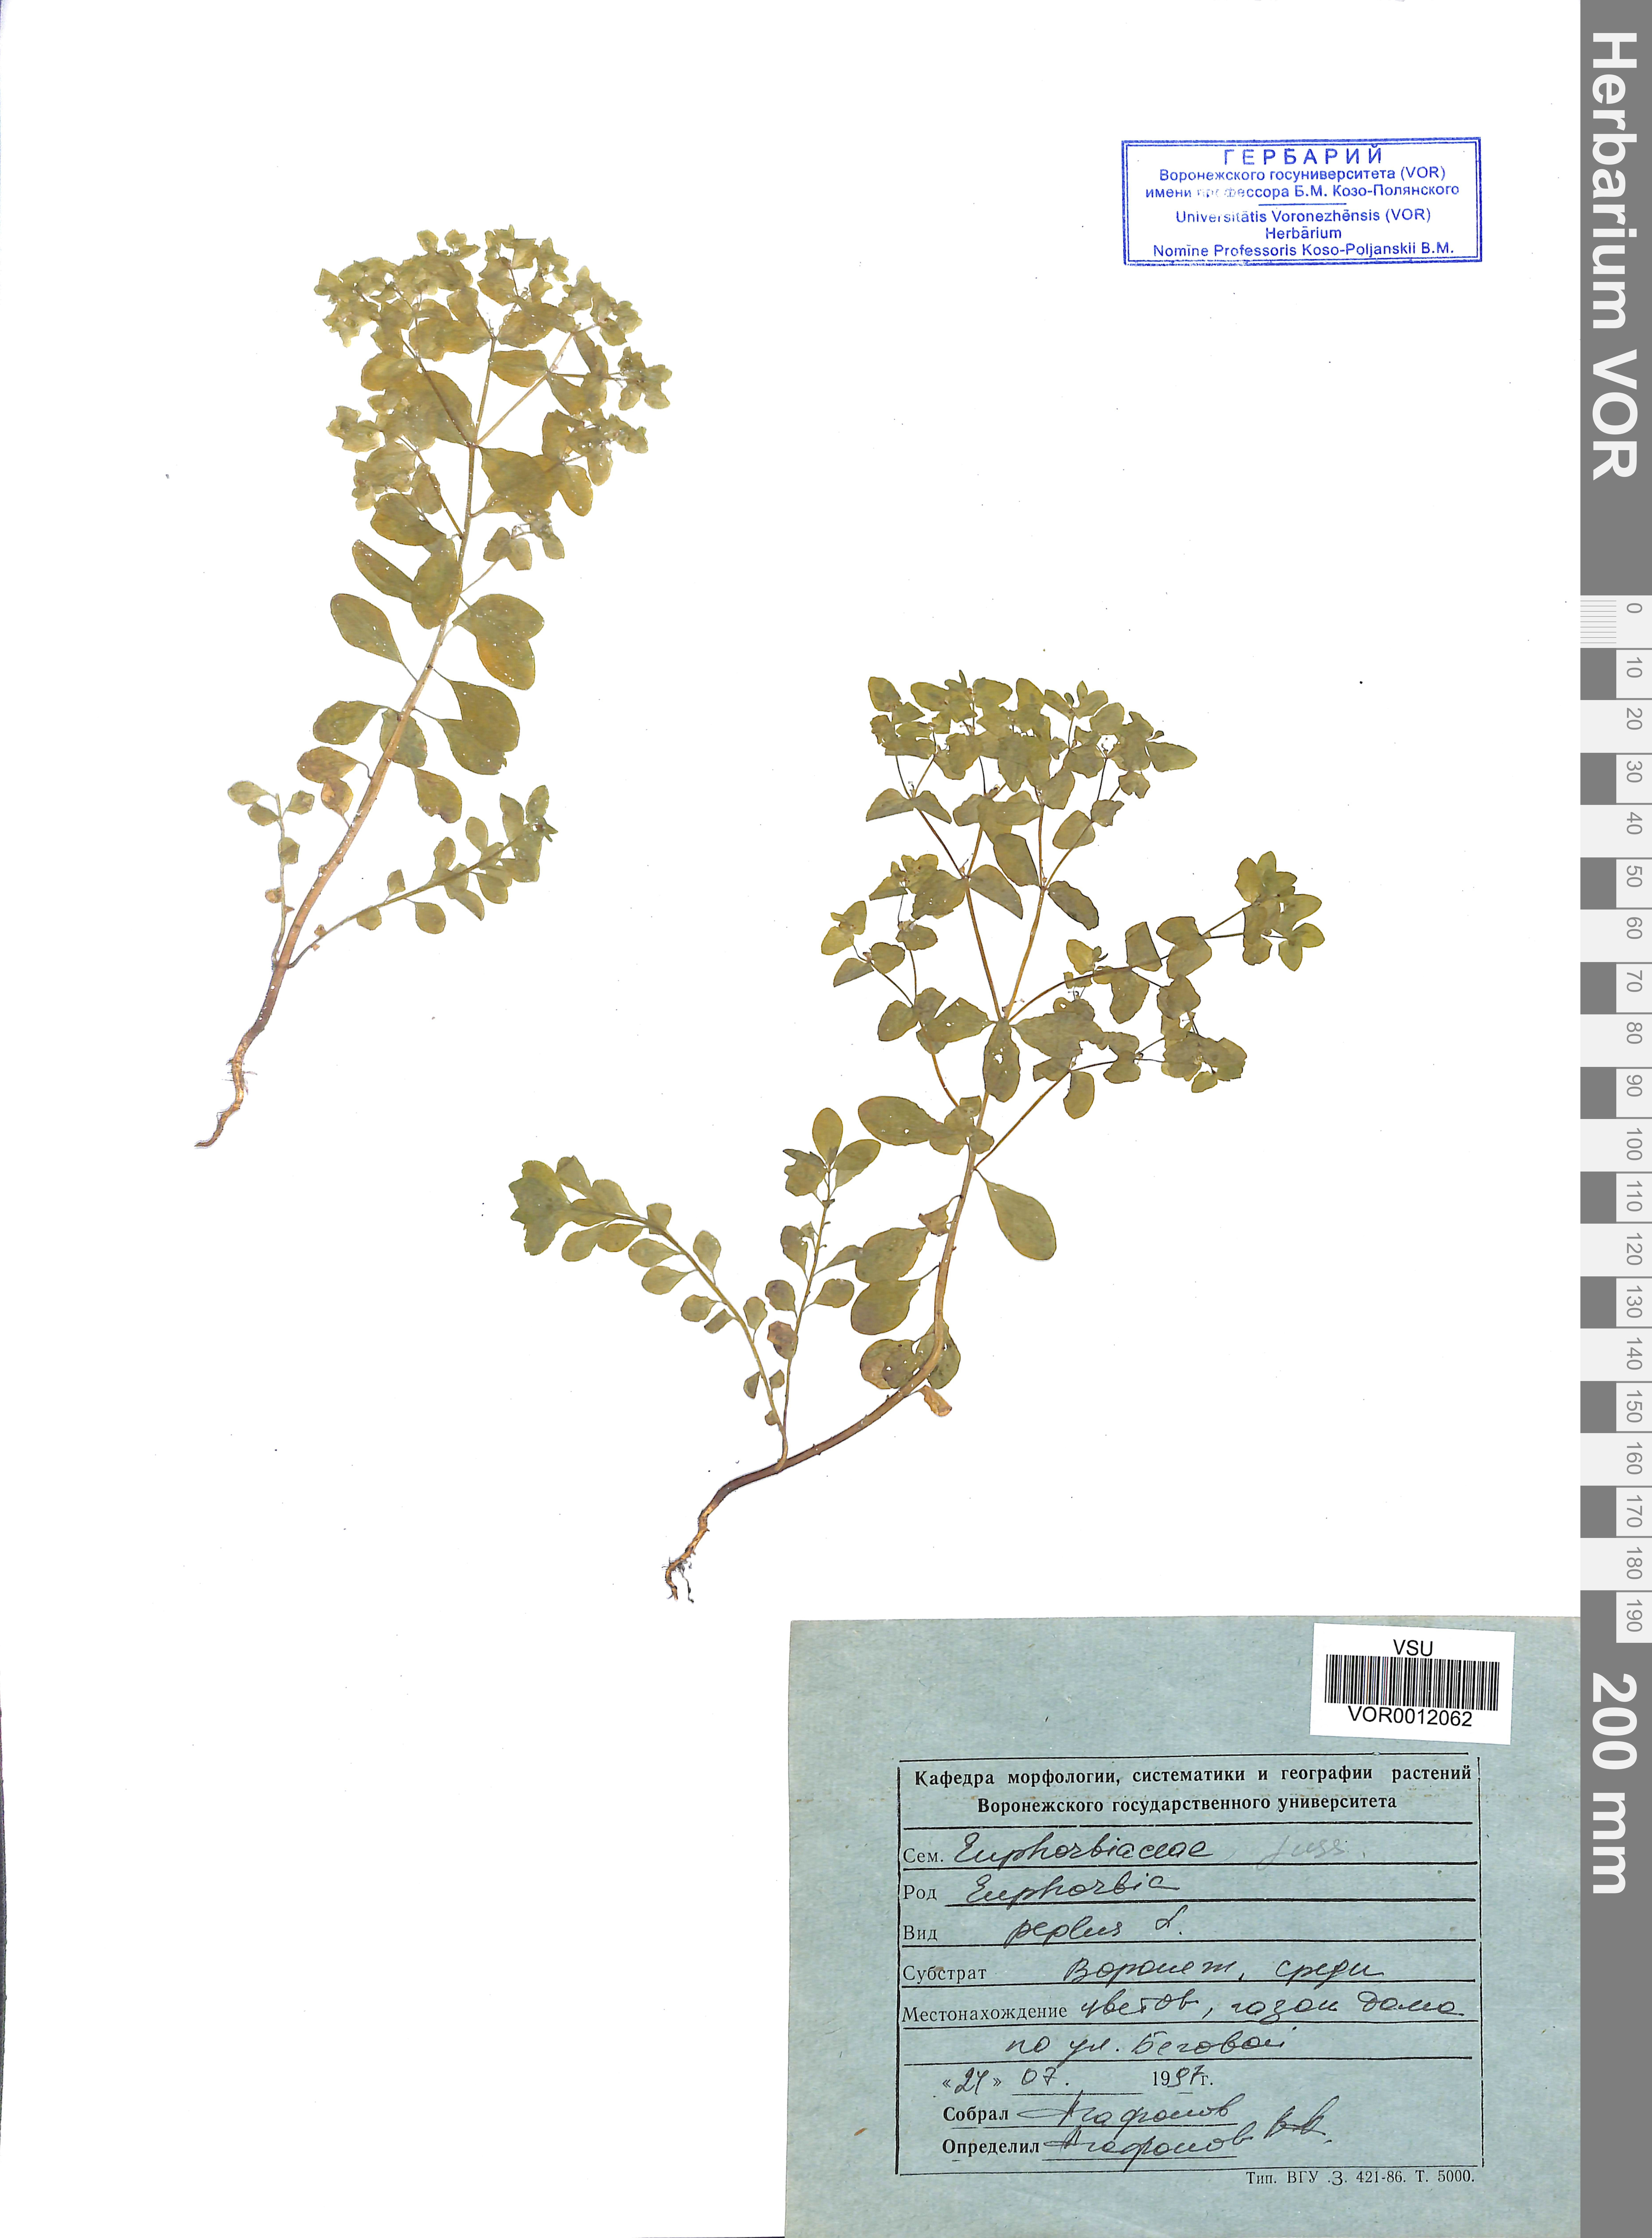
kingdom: Plantae
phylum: Tracheophyta
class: Magnoliopsida
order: Malpighiales
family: Euphorbiaceae
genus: Euphorbia
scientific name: Euphorbia peplus
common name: Petty spurge
